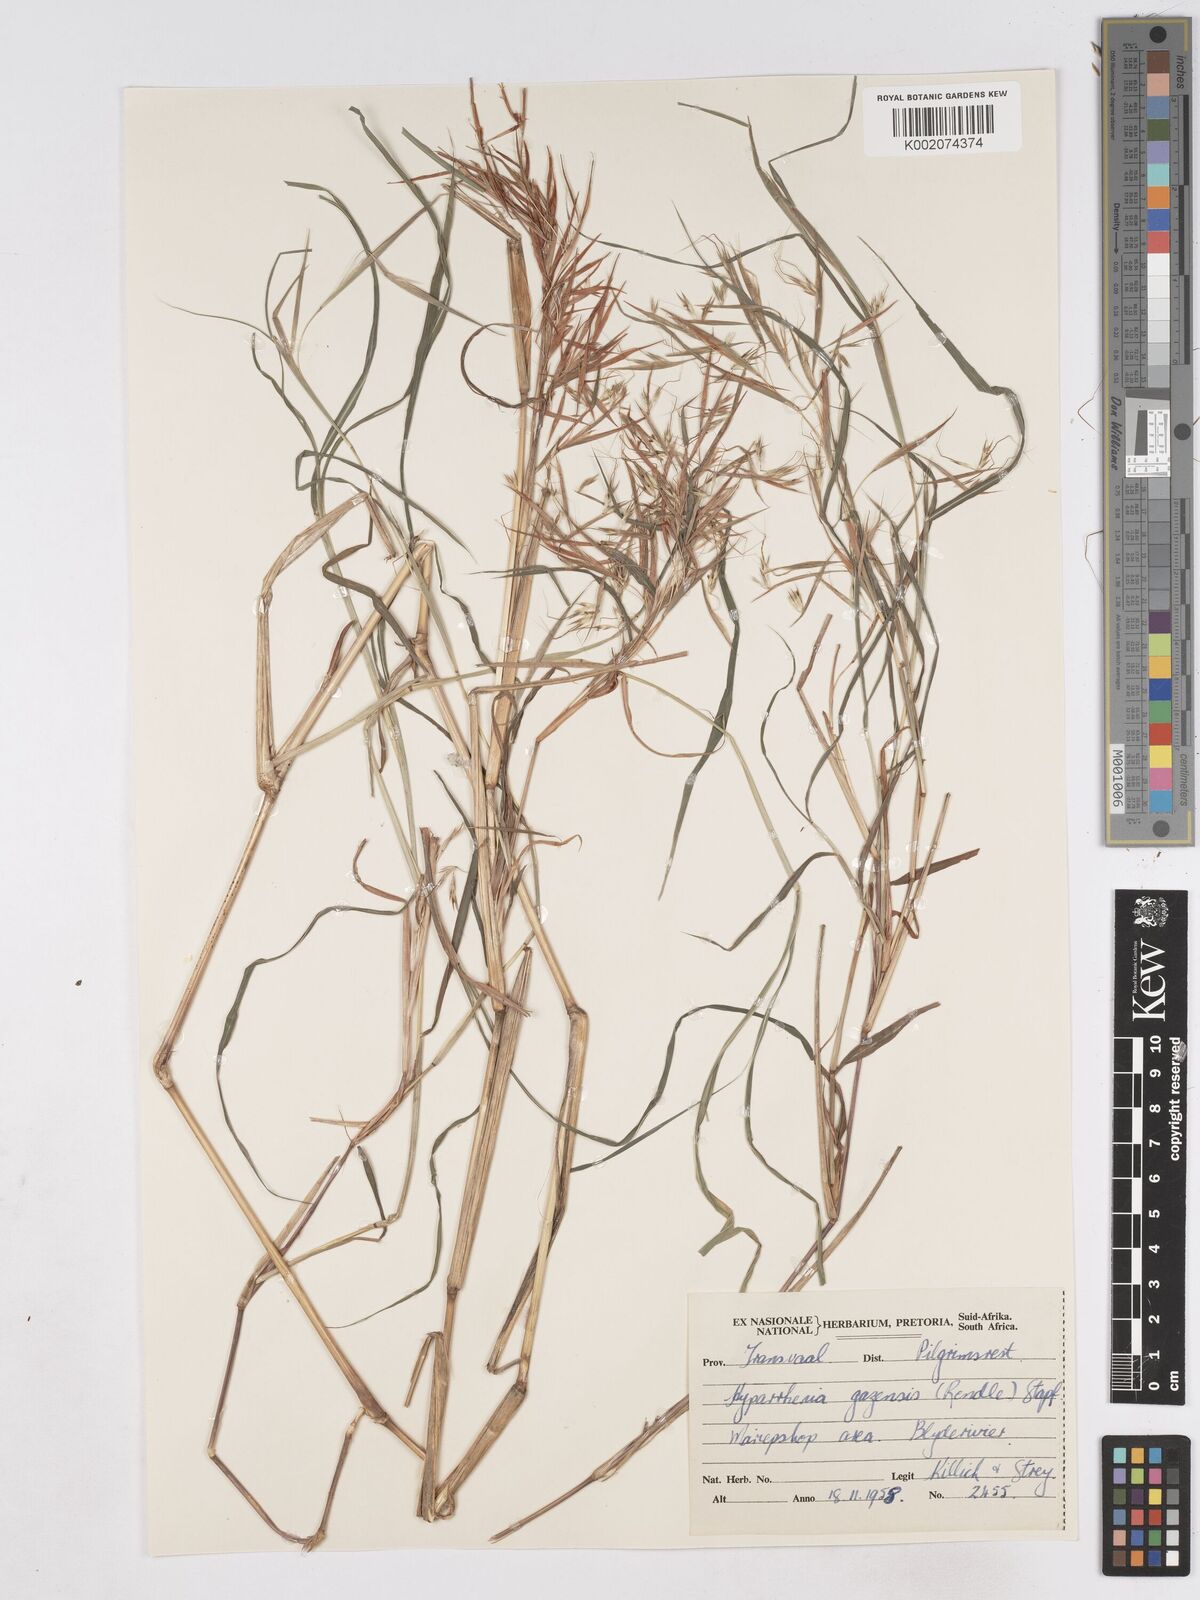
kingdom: Plantae
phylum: Tracheophyta
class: Liliopsida
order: Poales
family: Poaceae
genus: Hyparrhenia
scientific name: Hyparrhenia gazensis
